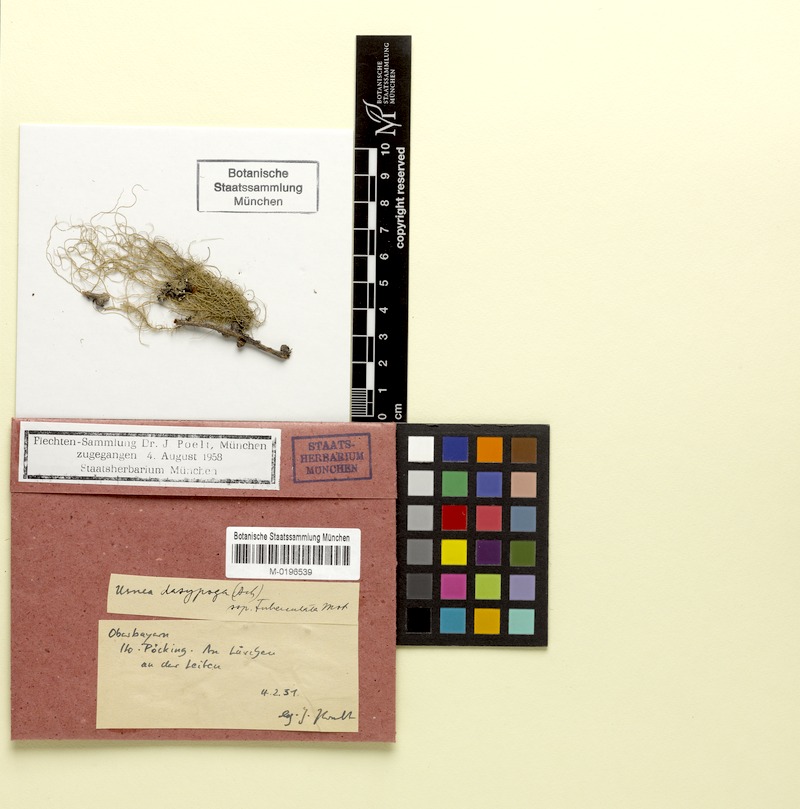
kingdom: Fungi
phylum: Ascomycota
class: Lecanoromycetes
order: Lecanorales
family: Parmeliaceae
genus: Usnea
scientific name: Usnea dasopoga
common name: Fishbone beard lichen
